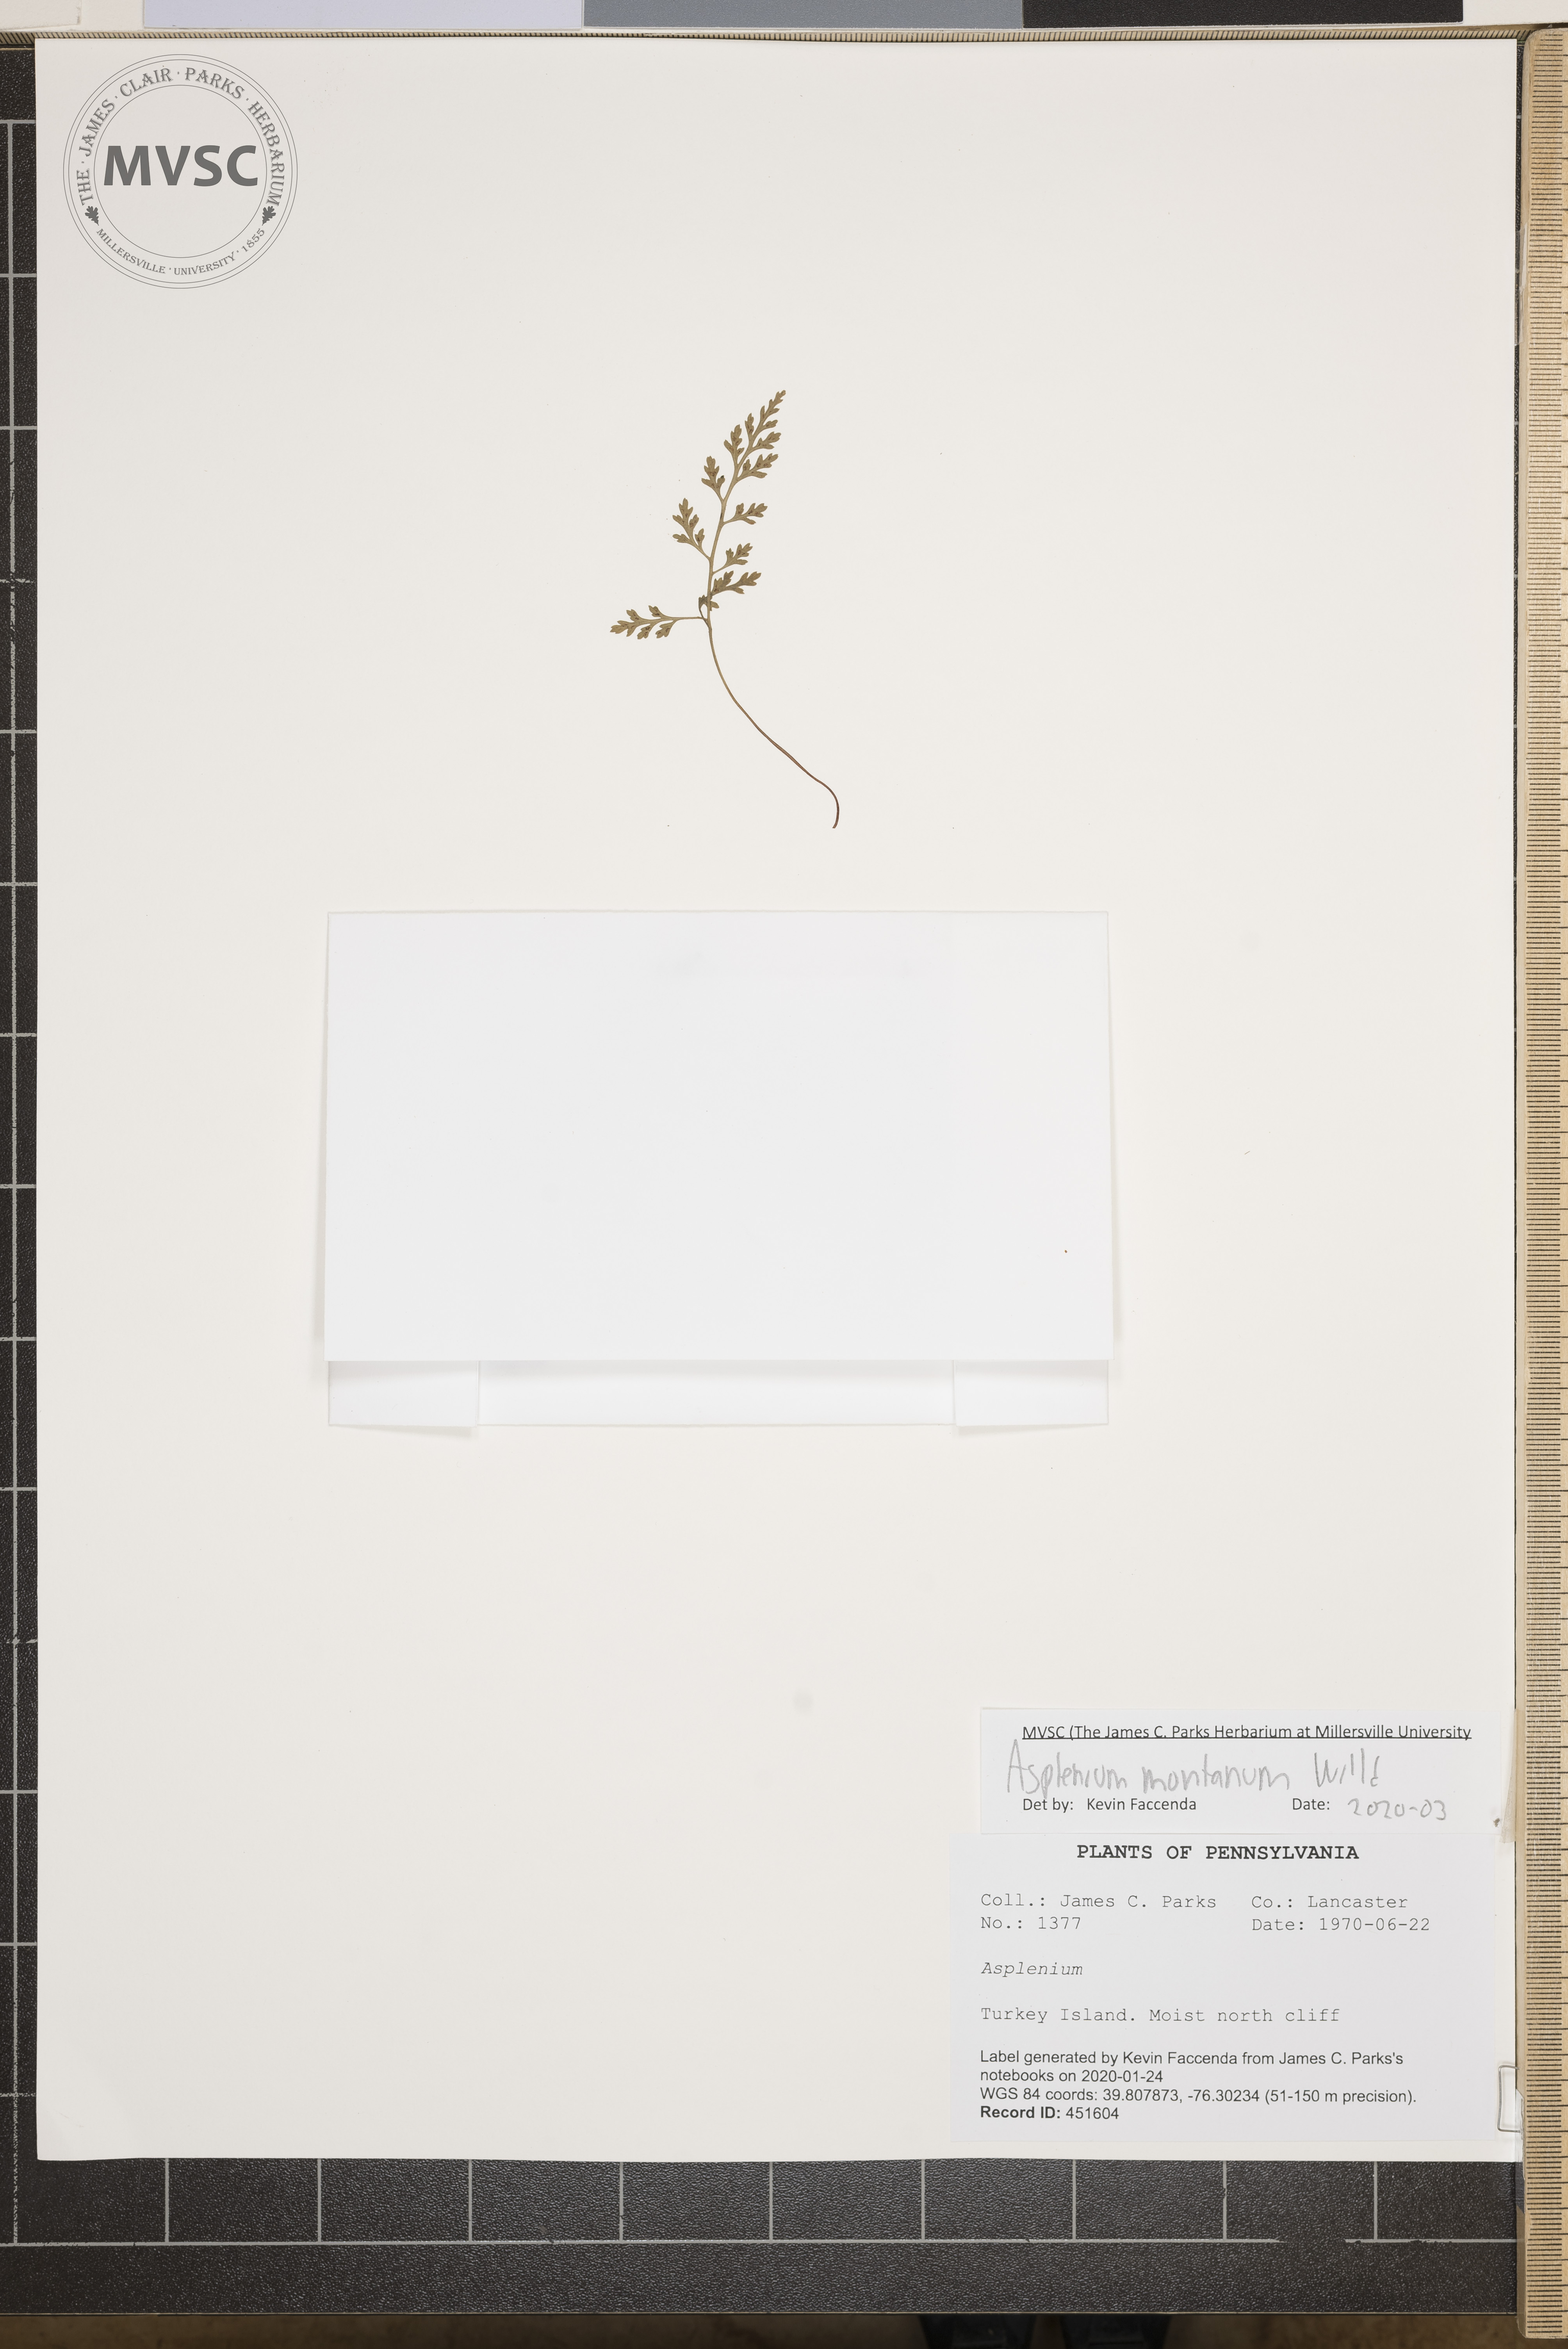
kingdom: Plantae
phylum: Tracheophyta
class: Polypodiopsida
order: Polypodiales
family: Aspleniaceae
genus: Asplenium
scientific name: Asplenium montanum
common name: Mountain spleenwort
